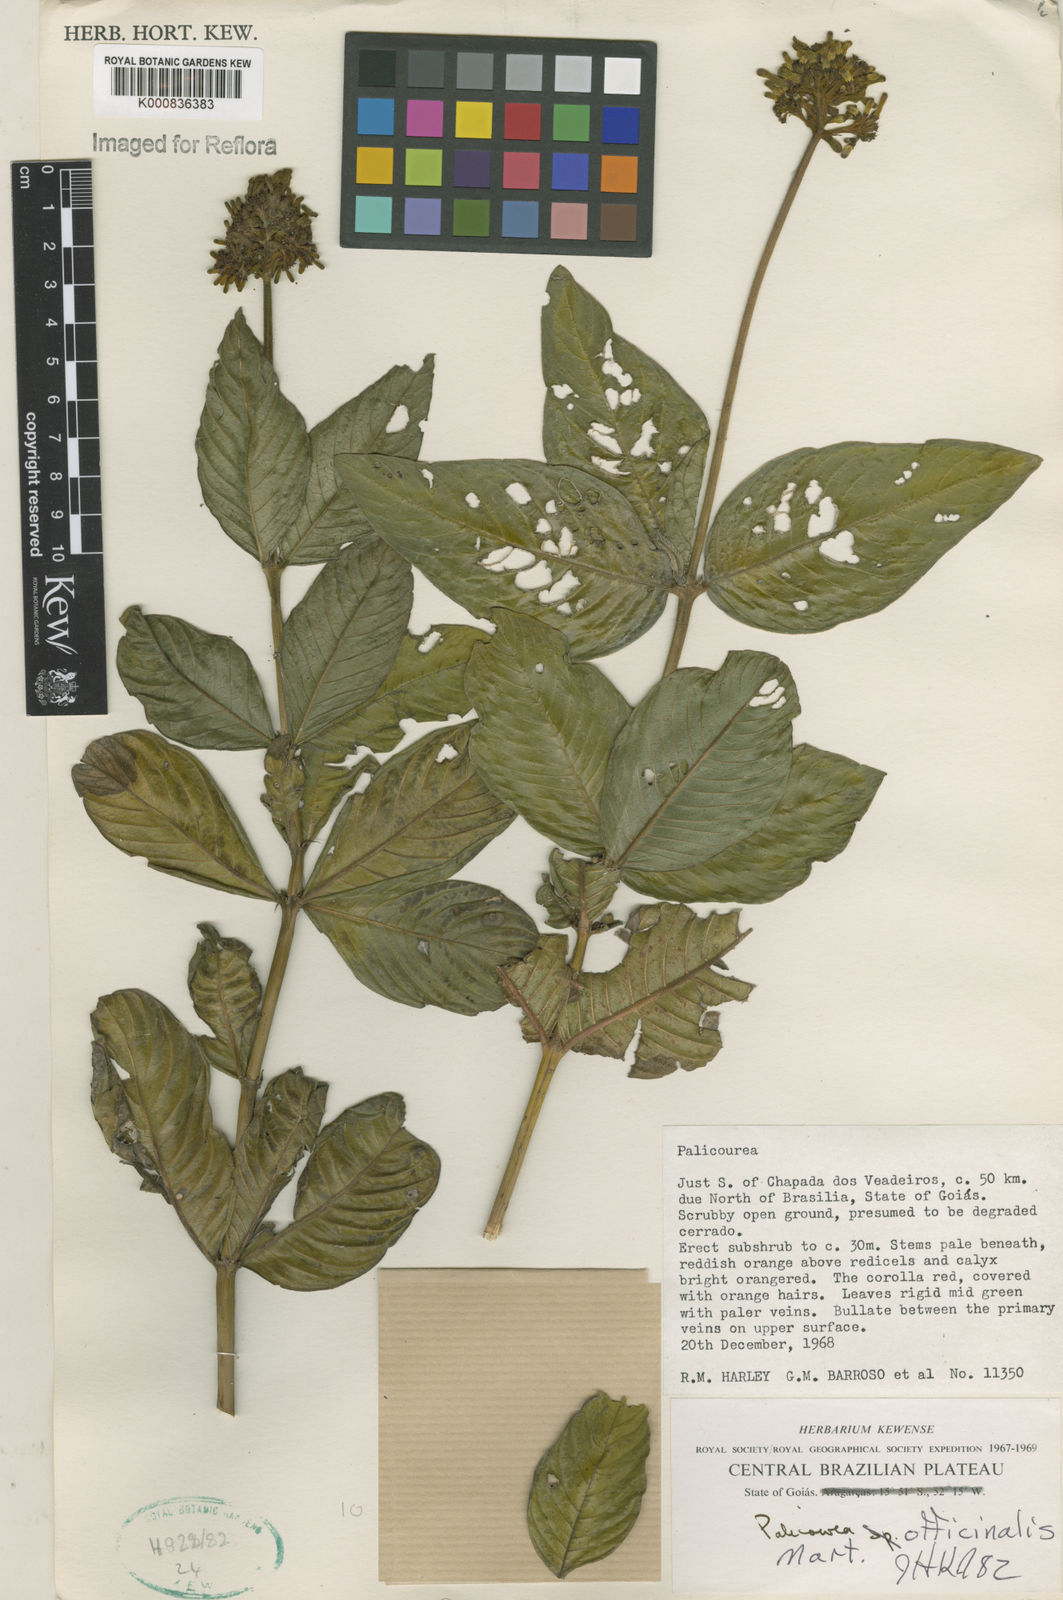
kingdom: Plantae
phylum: Tracheophyta
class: Magnoliopsida
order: Gentianales
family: Rubiaceae
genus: Palicourea
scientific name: Palicourea officinalis
